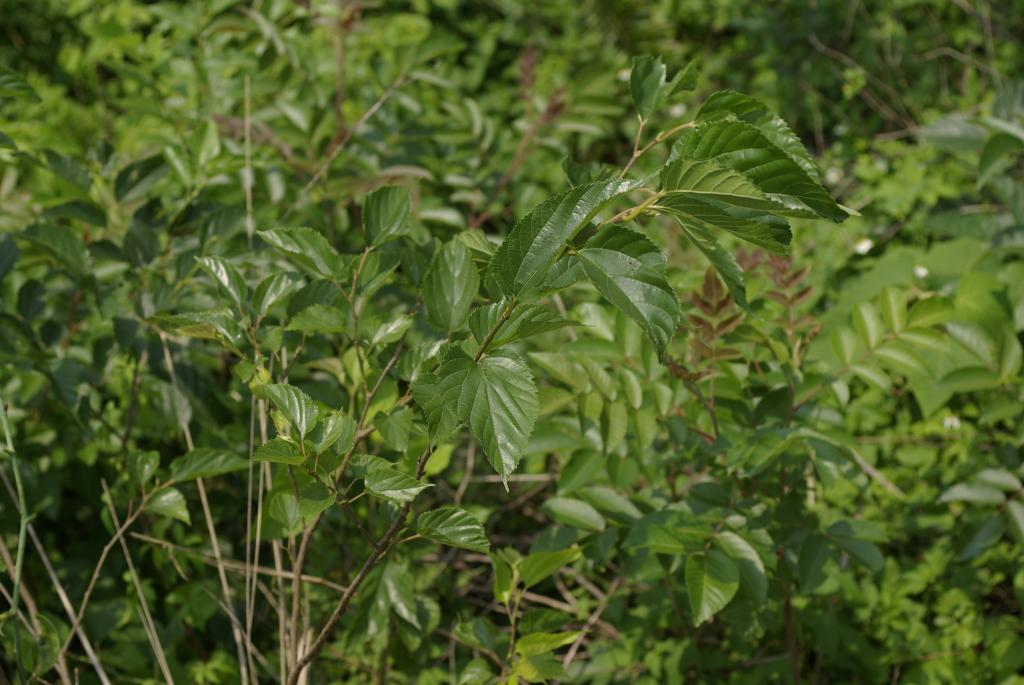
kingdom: Plantae
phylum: Tracheophyta
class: Magnoliopsida
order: Rosales
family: Moraceae
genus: Broussonetia
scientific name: Broussonetia papyrifera
